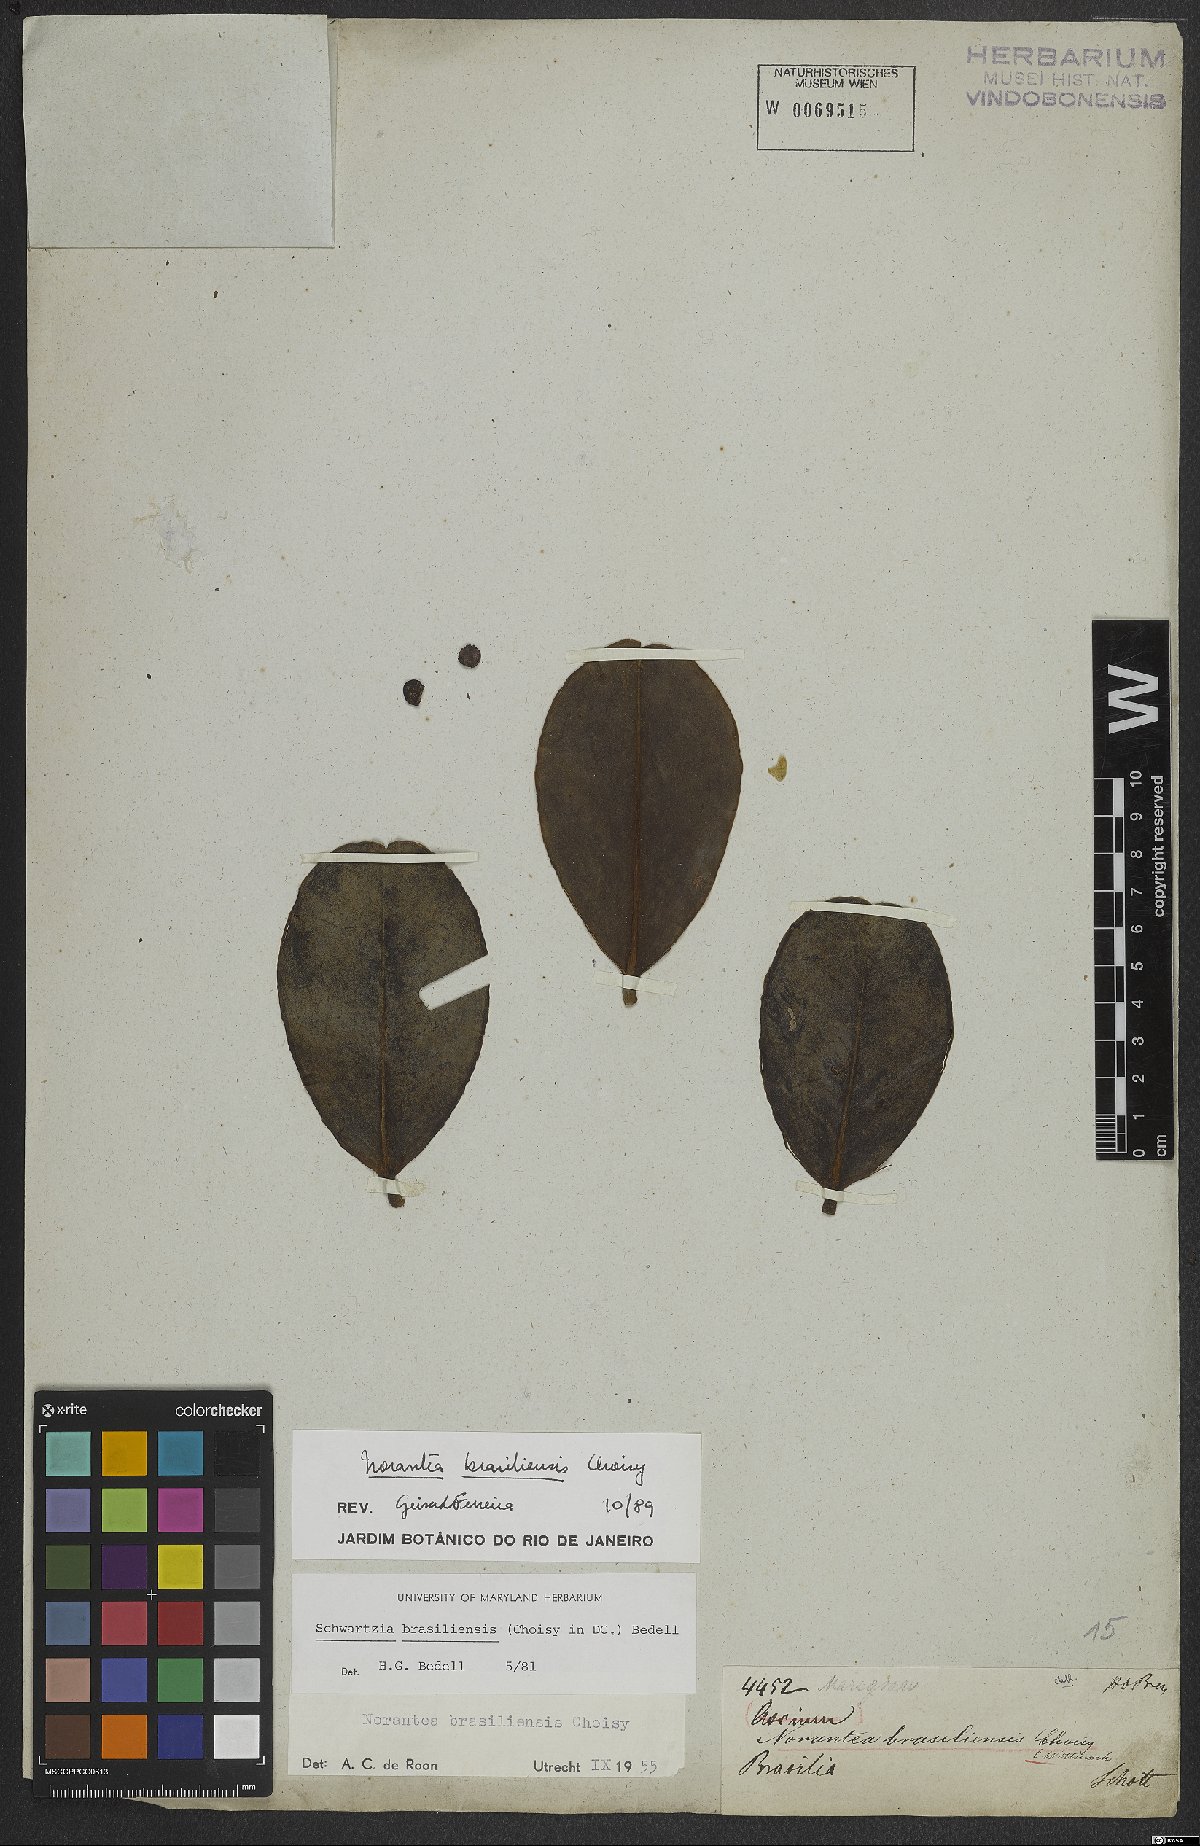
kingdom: Plantae
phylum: Tracheophyta
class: Magnoliopsida
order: Ericales
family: Marcgraviaceae
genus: Schwartzia
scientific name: Schwartzia brasiliensis
